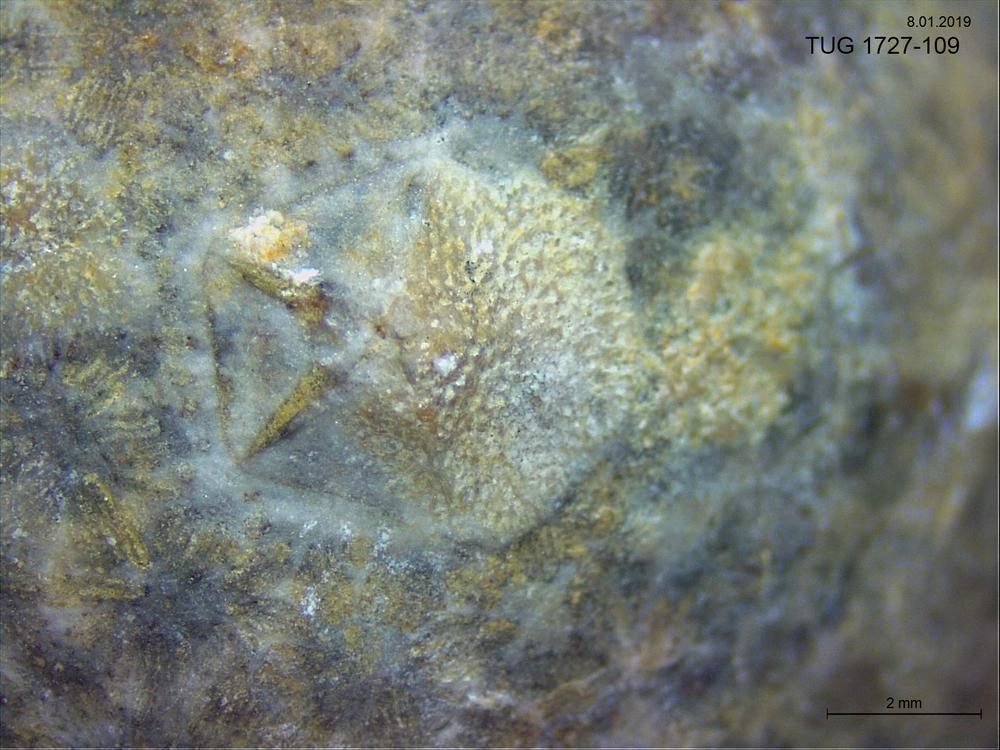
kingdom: Animalia
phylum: Bryozoa
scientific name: Bryozoa
